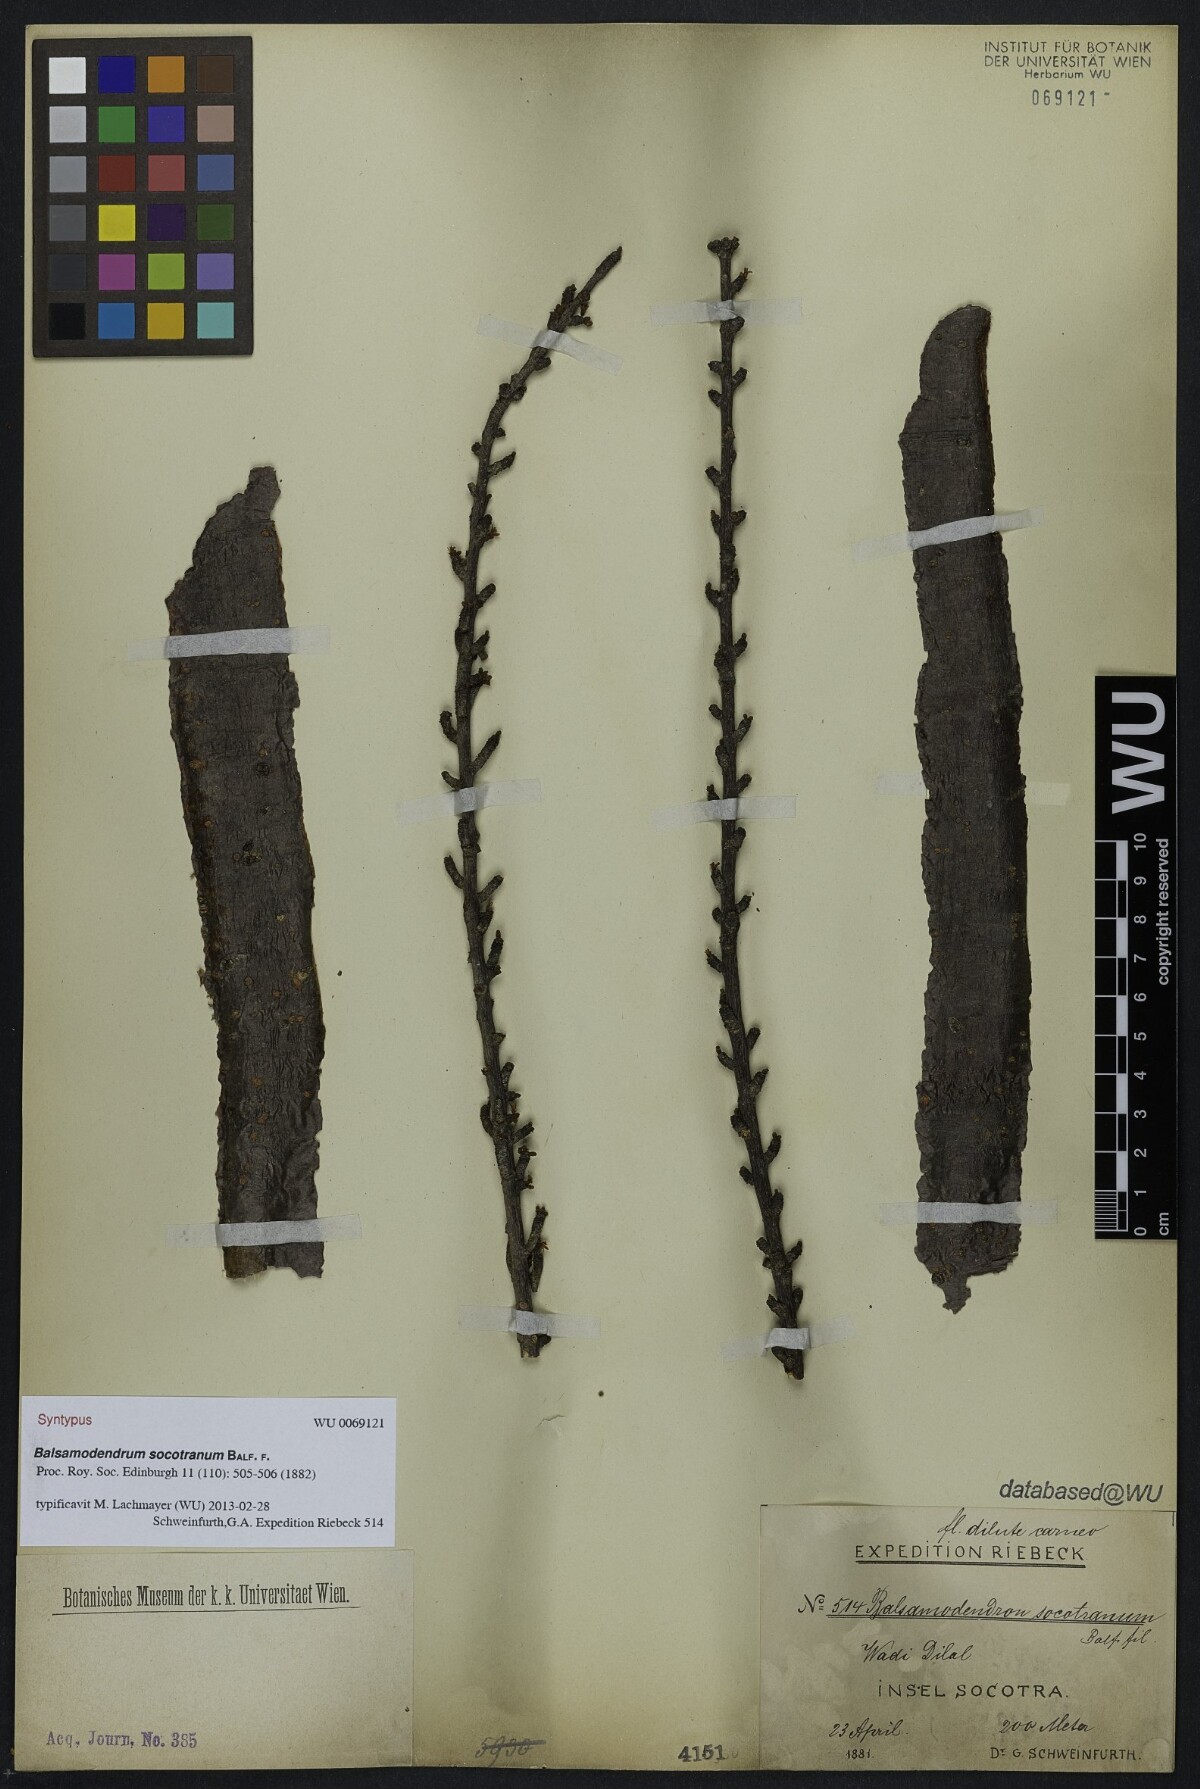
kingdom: Plantae
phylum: Tracheophyta
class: Magnoliopsida
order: Sapindales
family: Burseraceae
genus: Commiphora
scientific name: Commiphora socotrana
